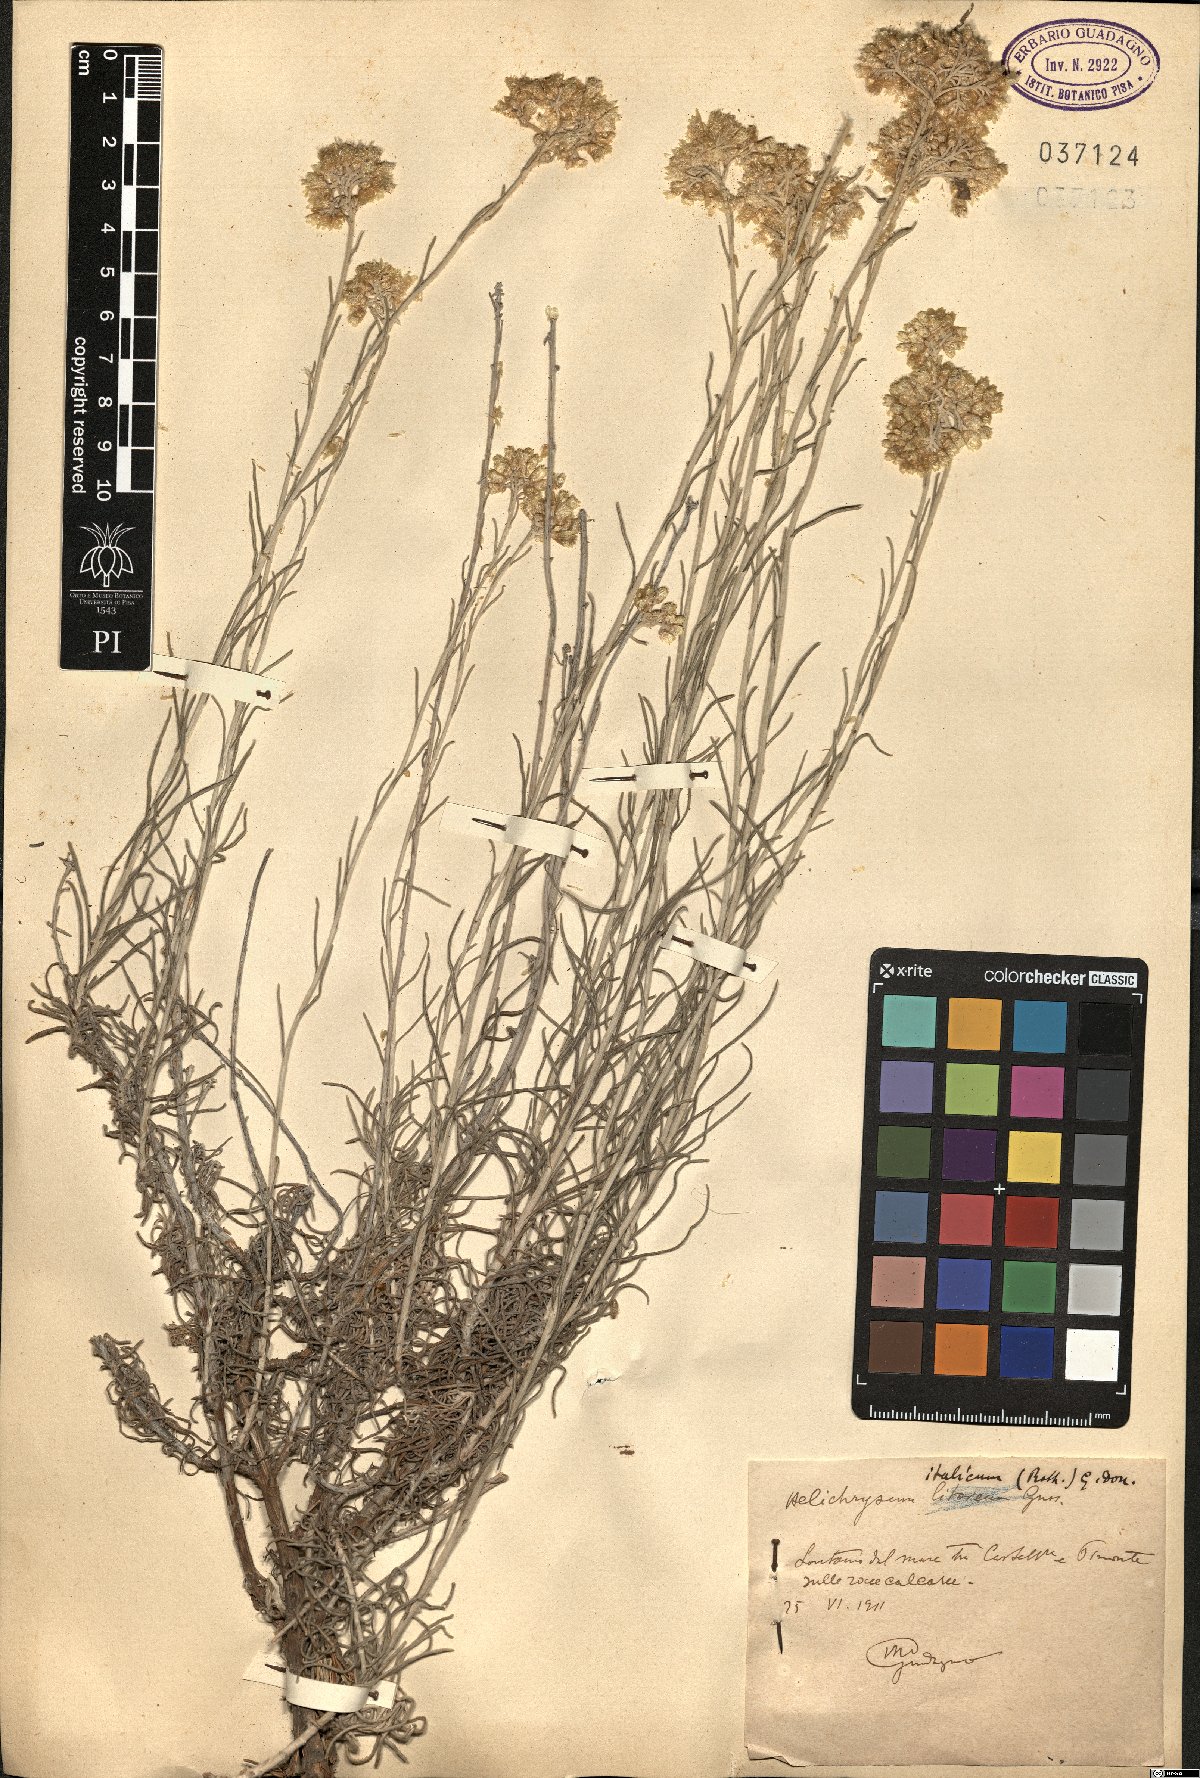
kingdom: Plantae
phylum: Tracheophyta
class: Magnoliopsida
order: Asterales
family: Asteraceae
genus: Helichrysum
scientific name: Helichrysum italicum
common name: Curryplant
